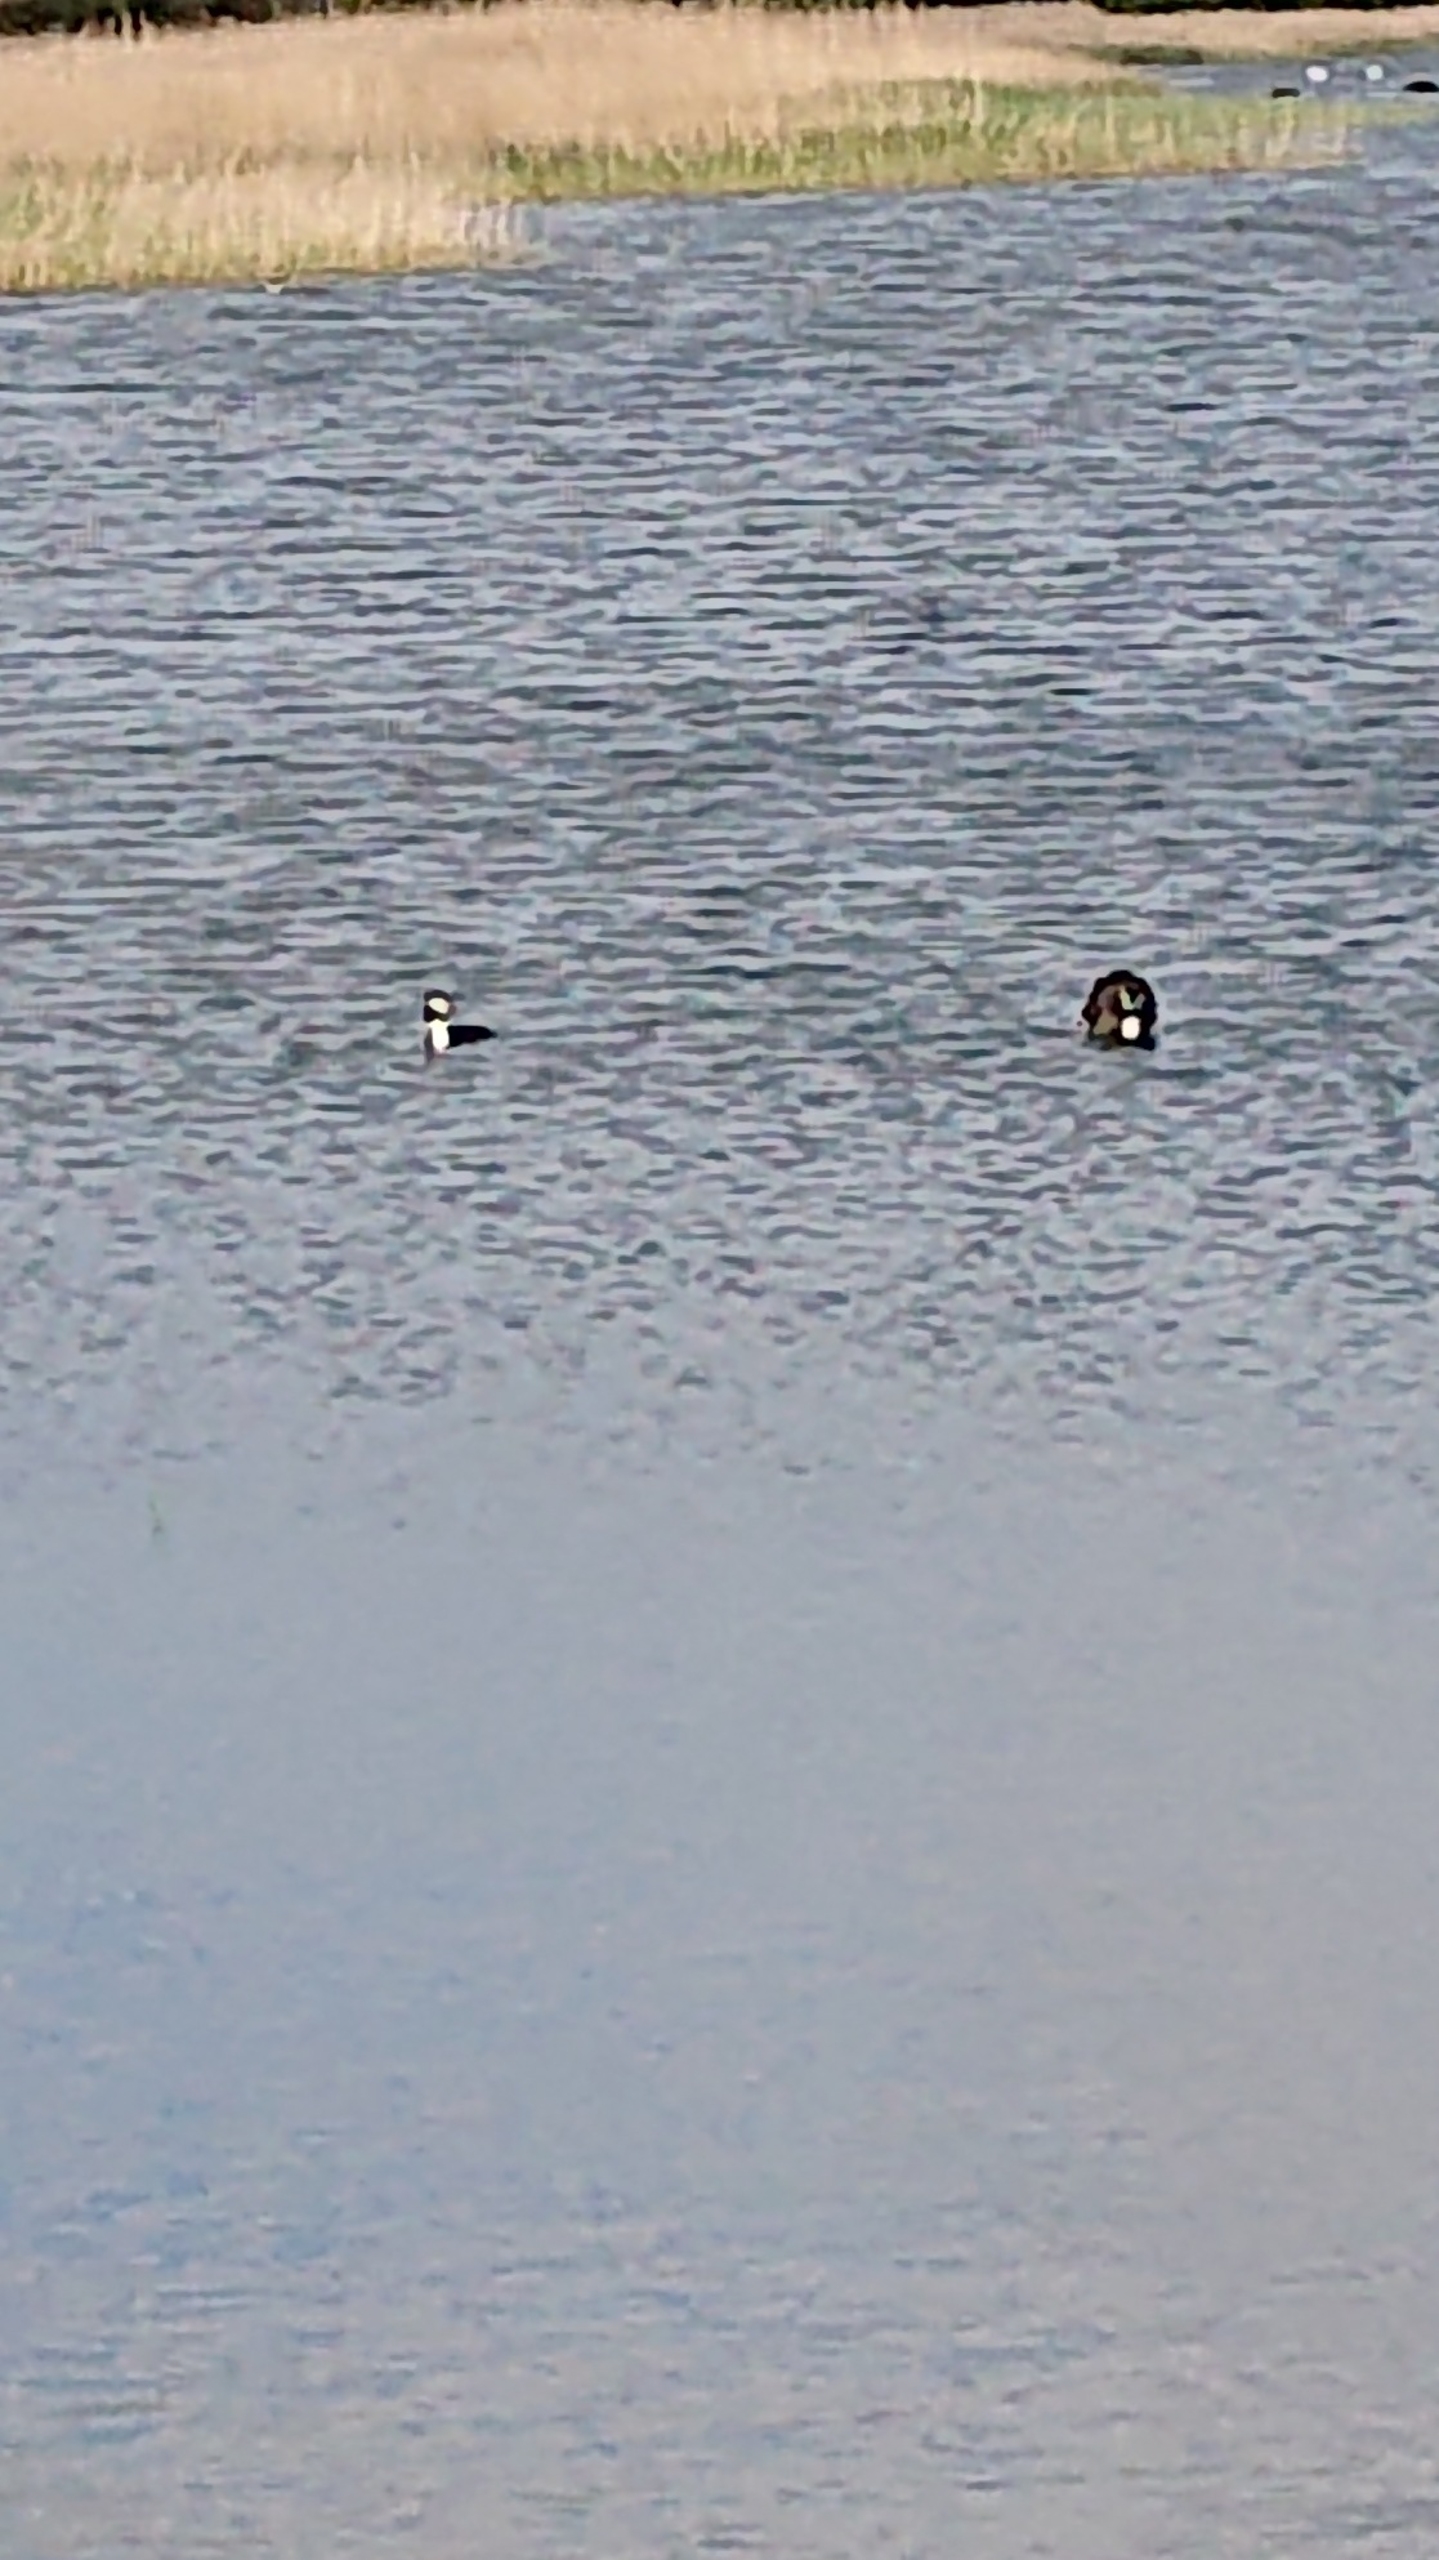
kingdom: Animalia
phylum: Chordata
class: Aves
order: Podicipediformes
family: Podicipedidae
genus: Podiceps
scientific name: Podiceps cristatus
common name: Toppet lappedykker
